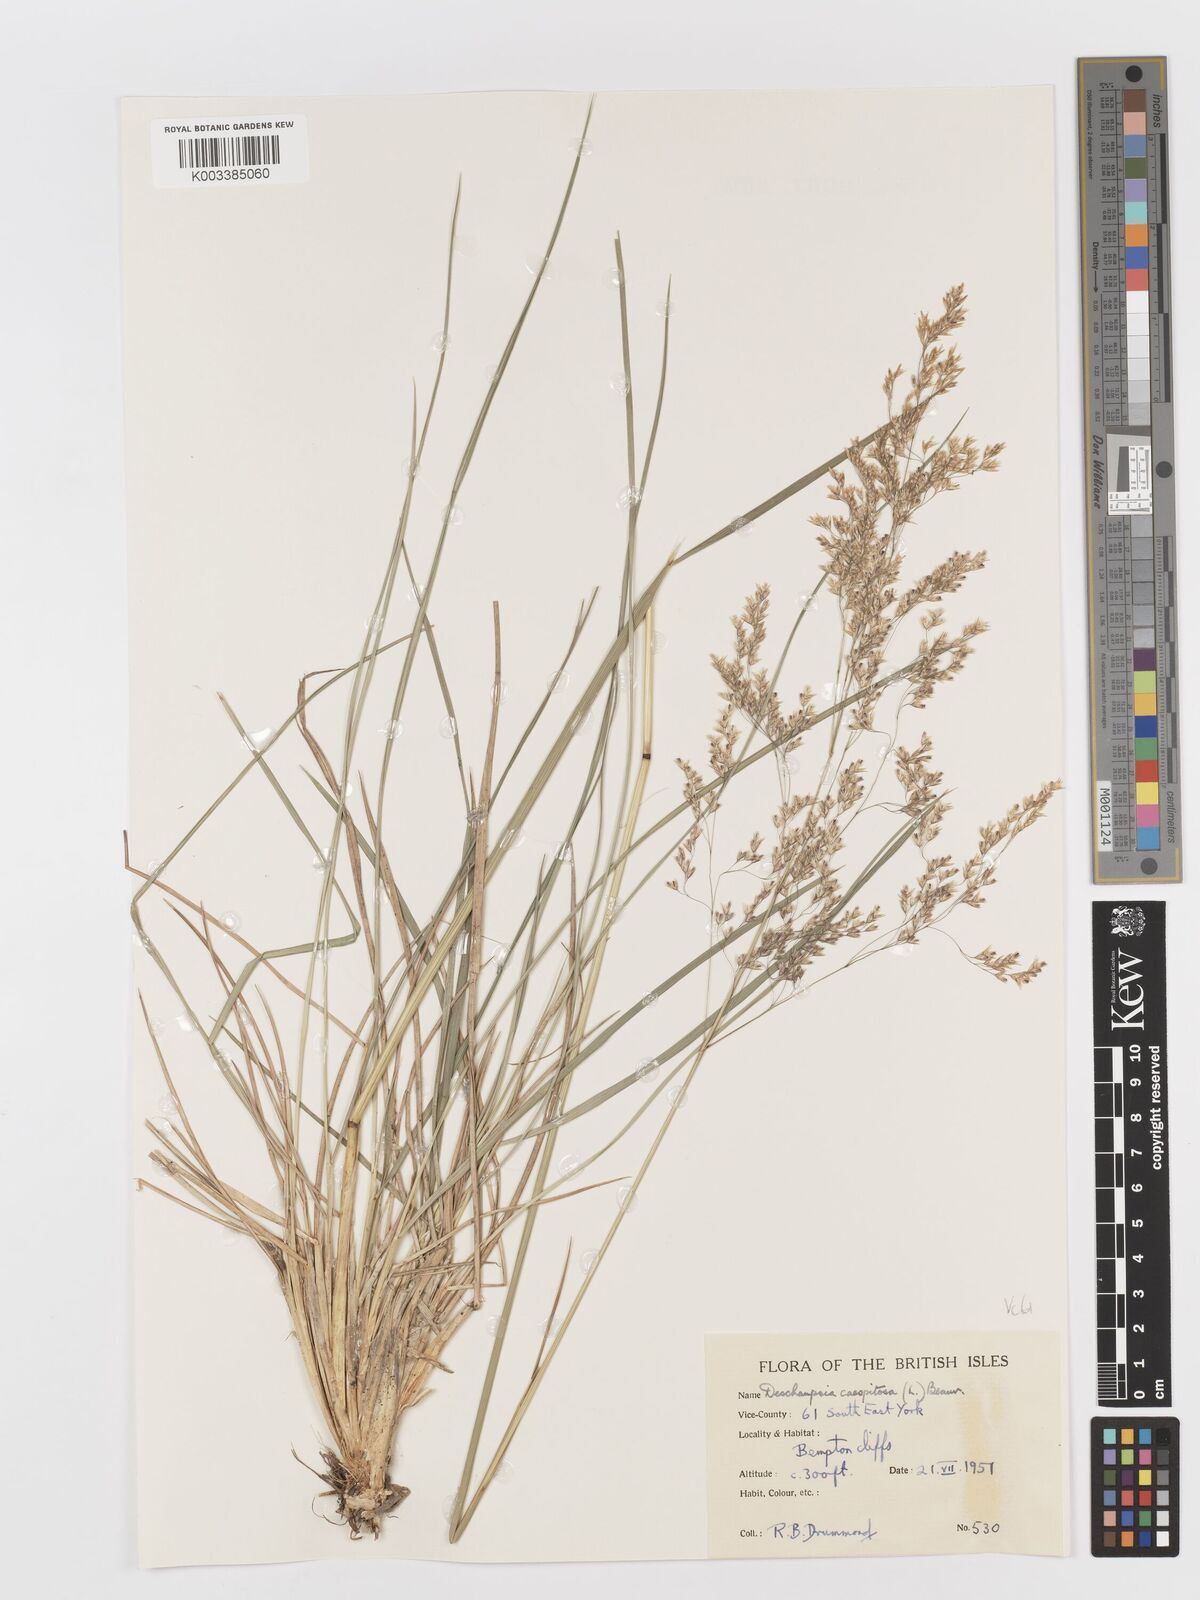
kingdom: Plantae
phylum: Tracheophyta
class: Liliopsida
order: Poales
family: Poaceae
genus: Deschampsia
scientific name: Deschampsia cespitosa
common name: Tufted hair-grass
